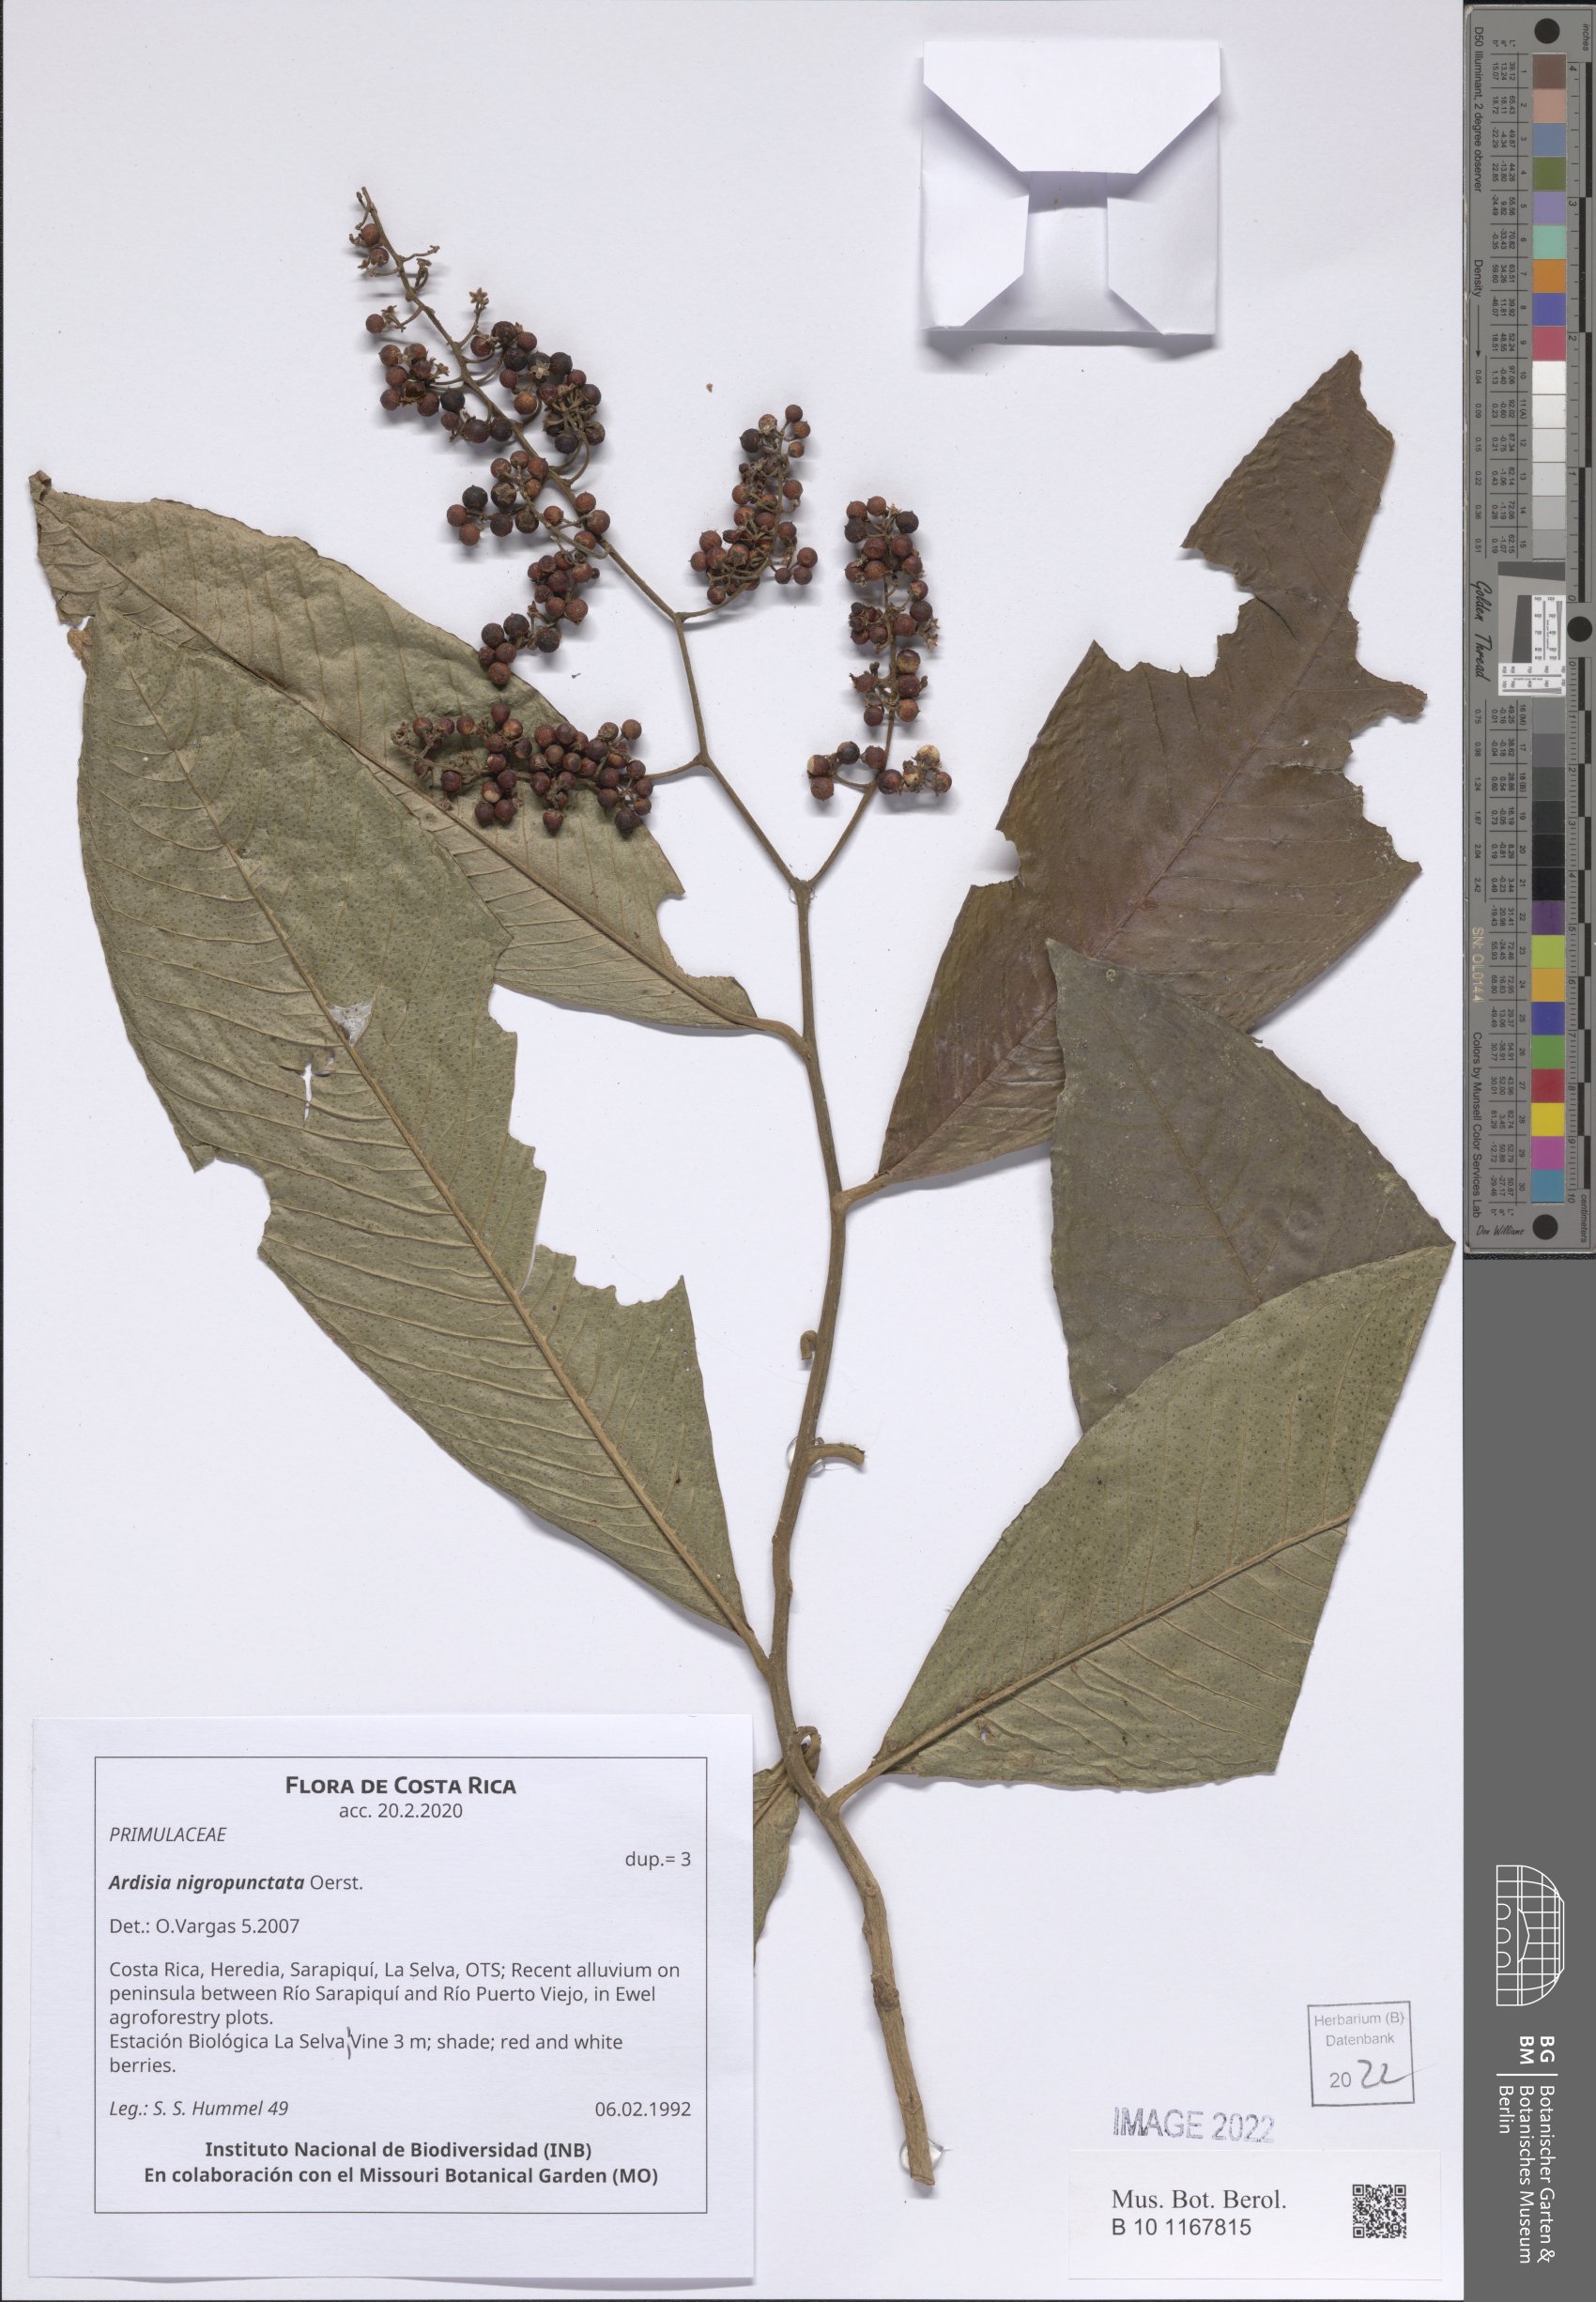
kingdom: Plantae
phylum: Tracheophyta
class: Magnoliopsida
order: Ericales
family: Primulaceae
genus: Ardisia
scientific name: Ardisia nigropunctata
